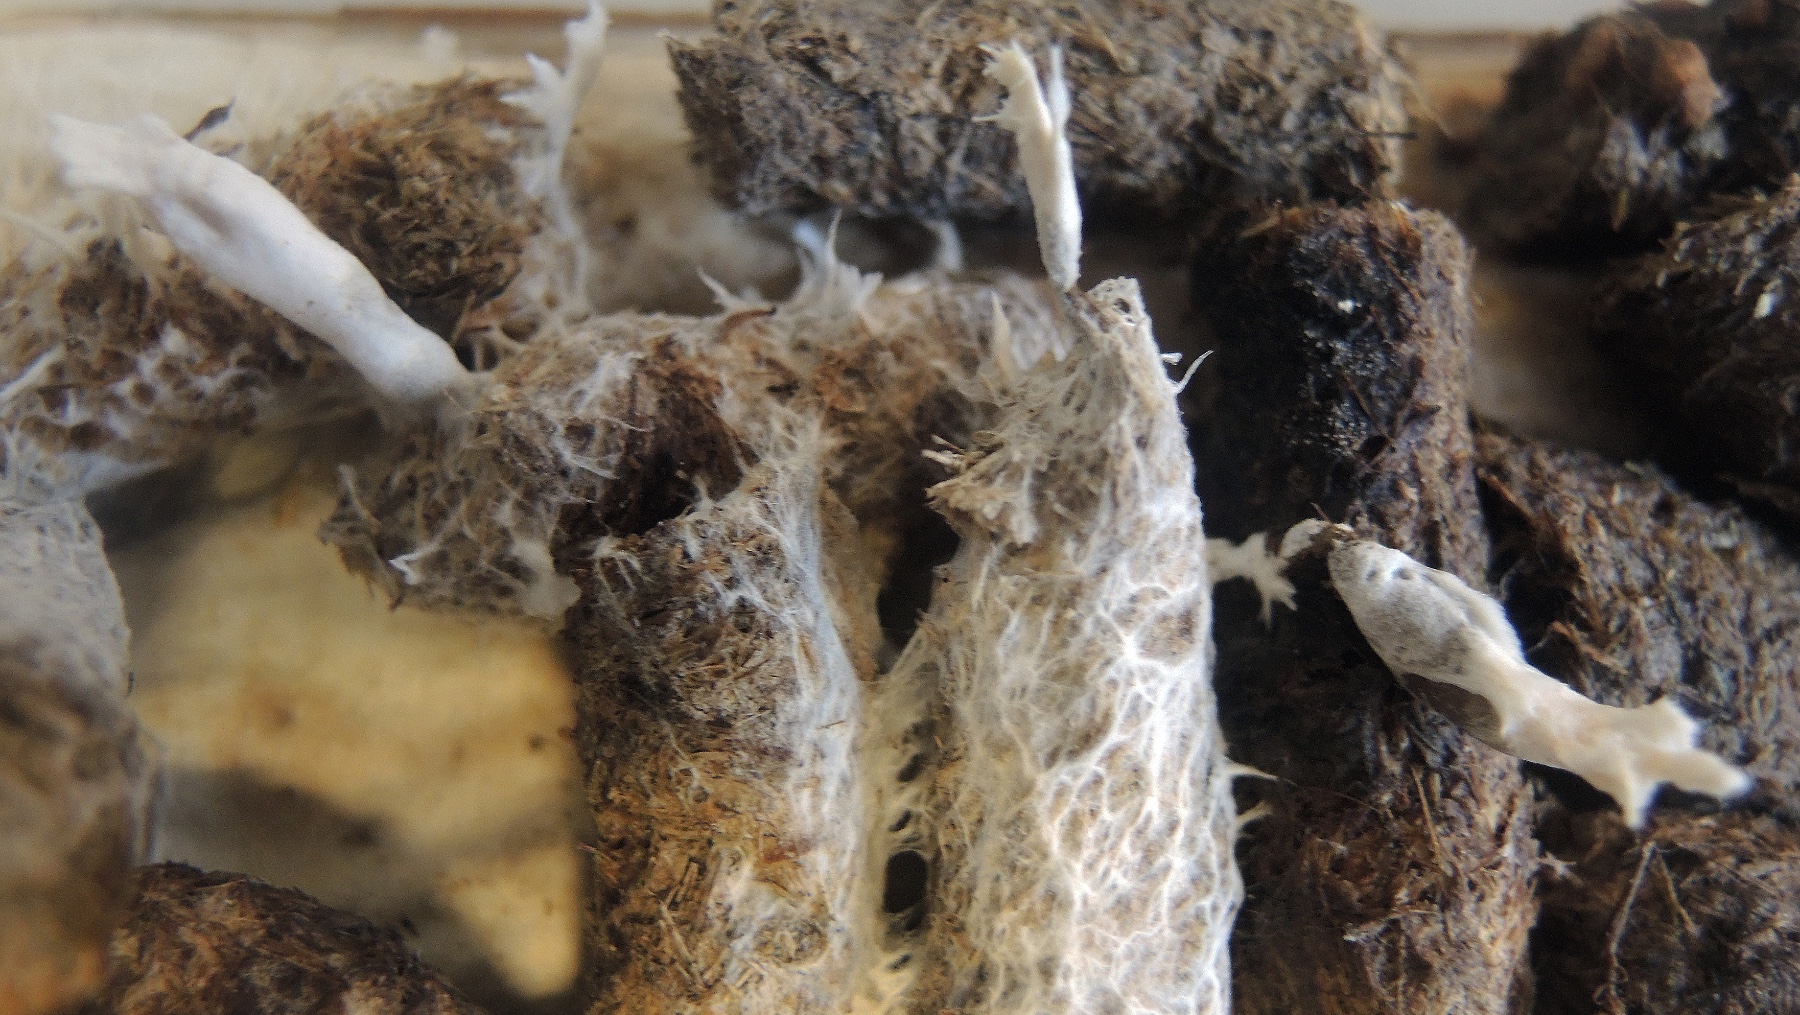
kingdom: Fungi
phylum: Ascomycota
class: Sordariomycetes
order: Xylariales
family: Xylariaceae
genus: Podosordaria
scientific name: Podosordaria tulasnei
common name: gødnings-stødsvamp
